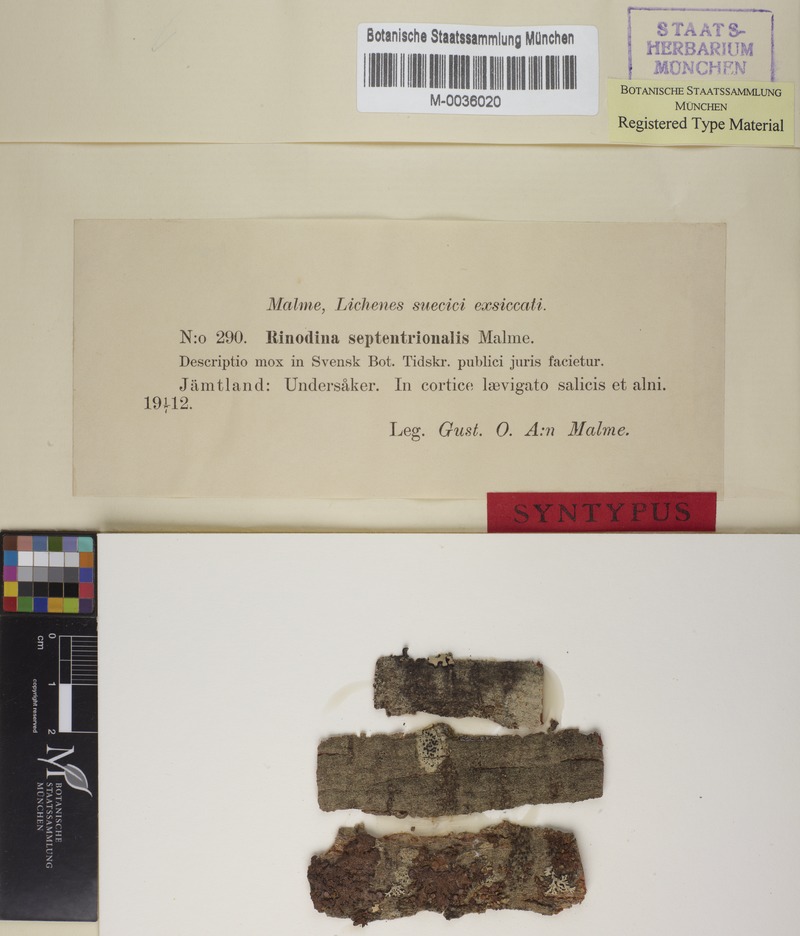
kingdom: Fungi
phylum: Ascomycota
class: Lecanoromycetes
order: Caliciales
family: Physciaceae
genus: Rinodina
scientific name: Rinodina septentrionalis
